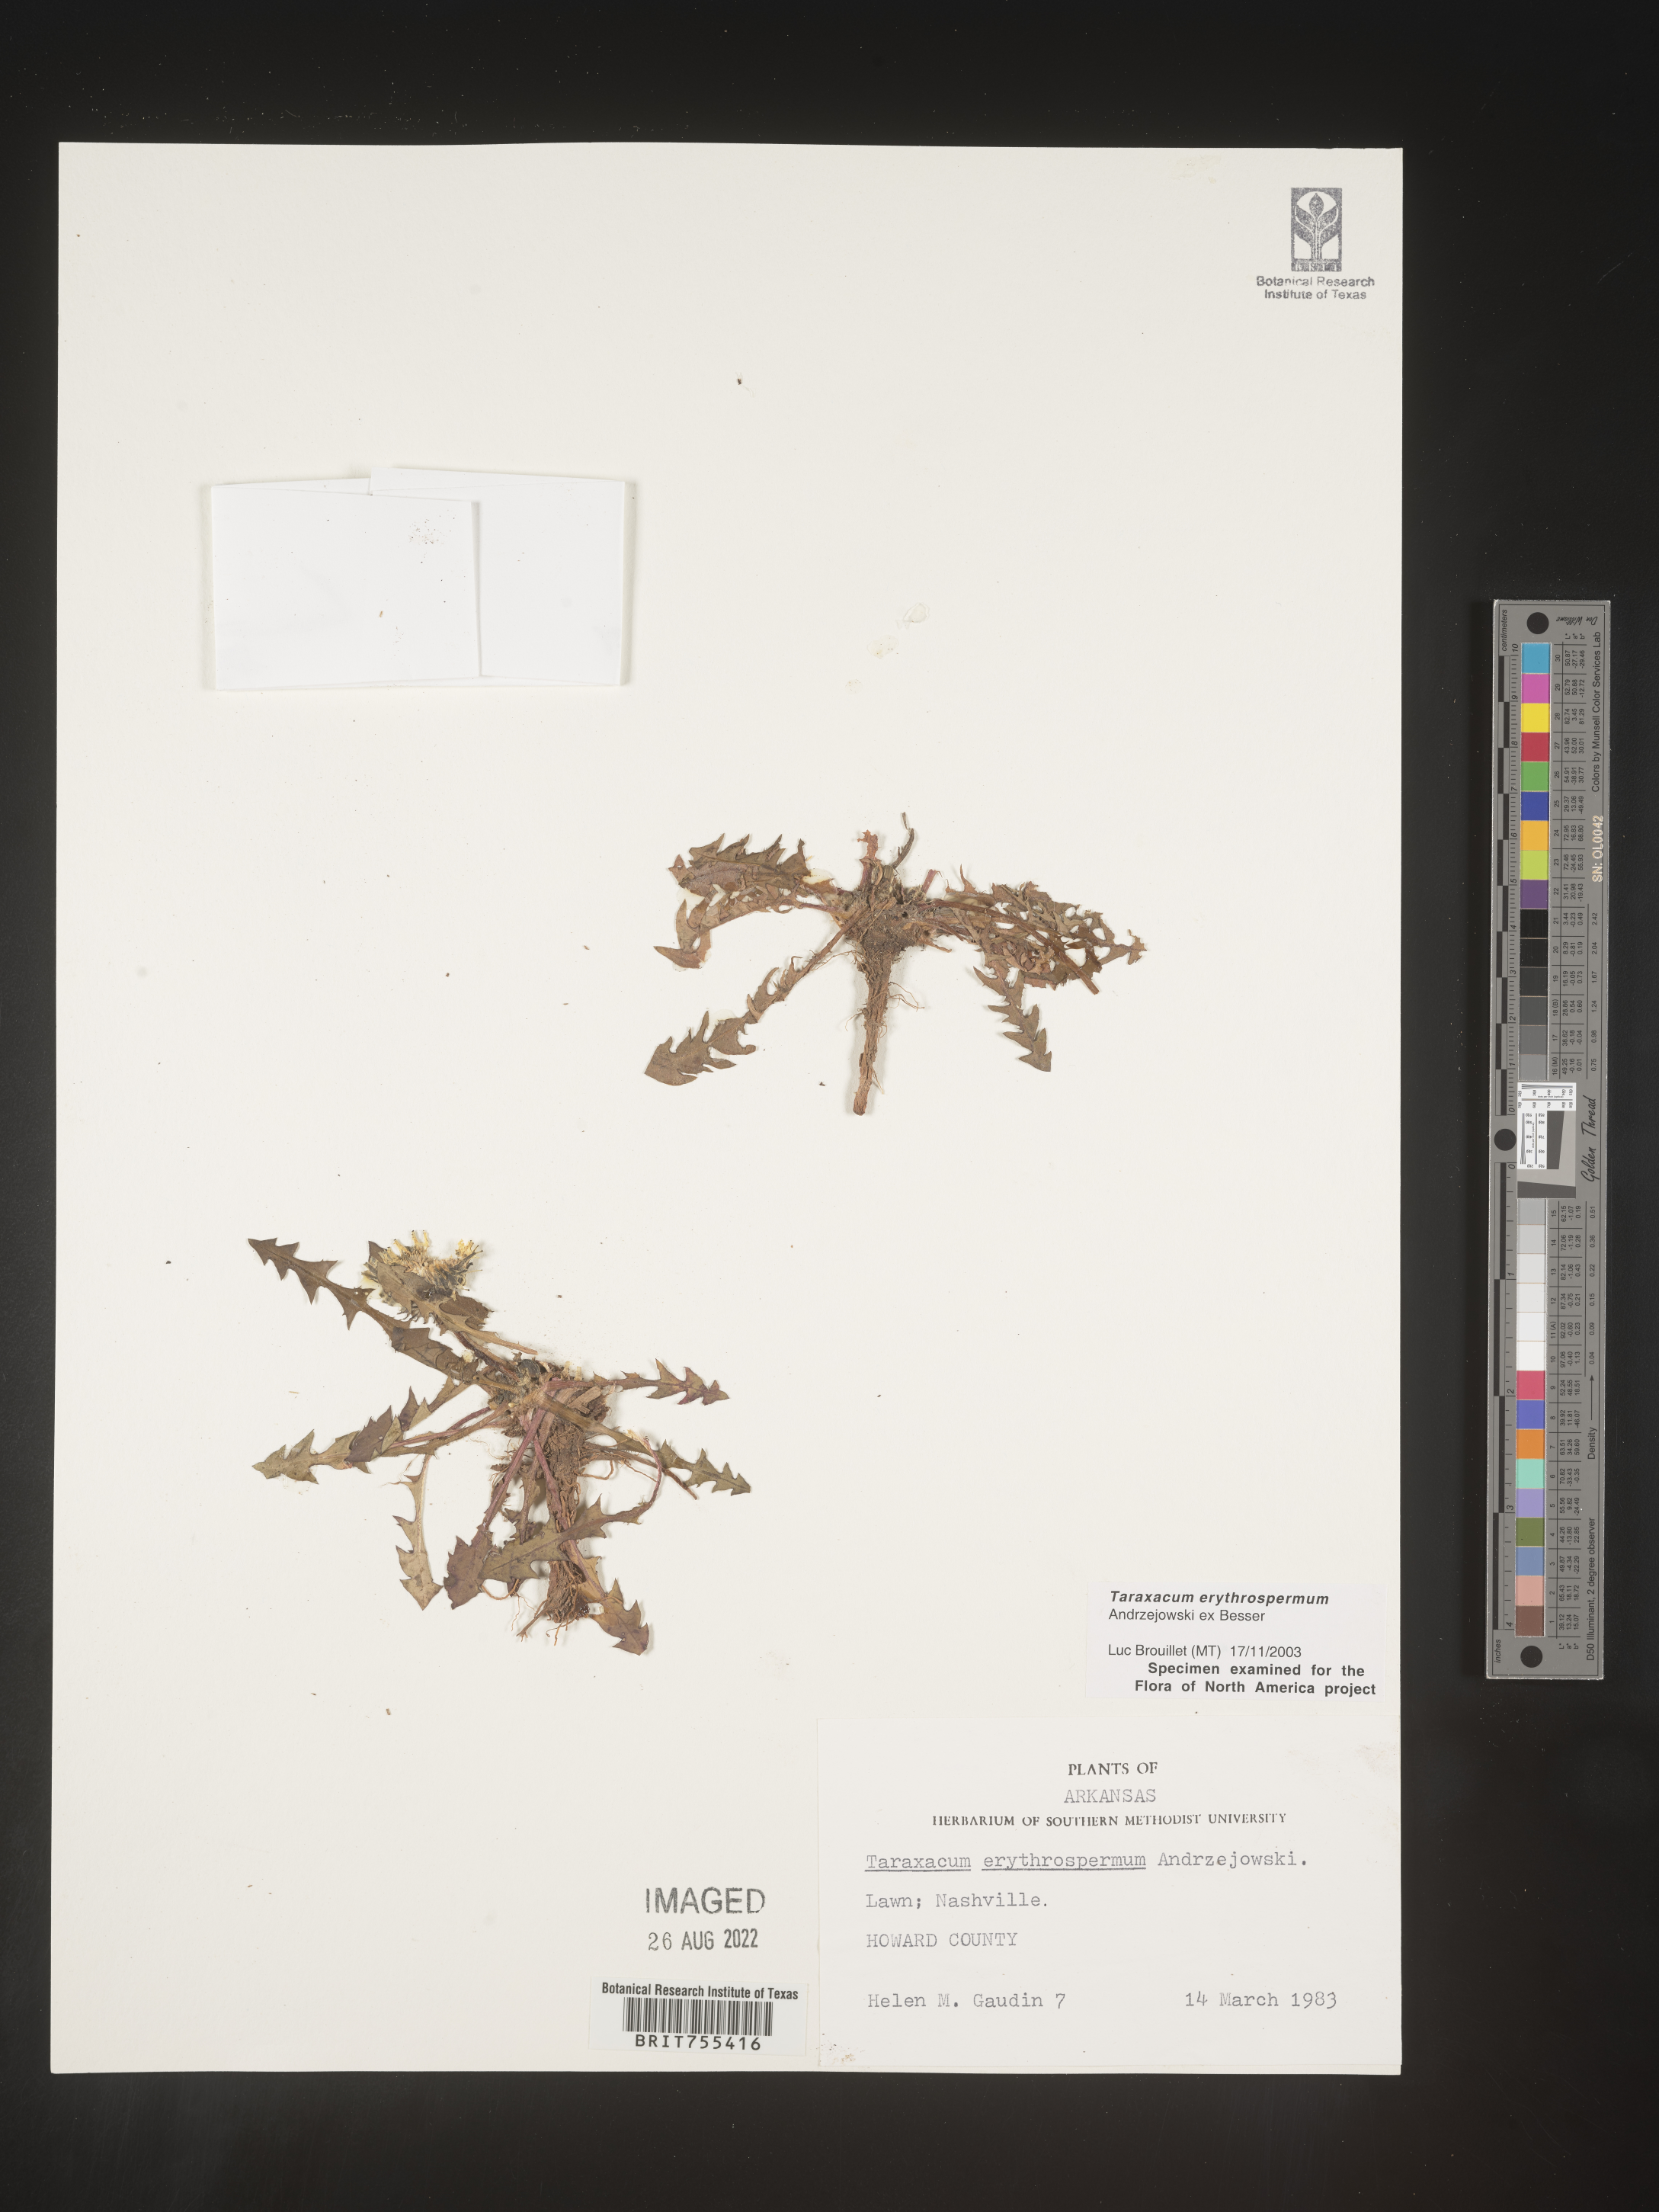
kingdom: Plantae
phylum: Tracheophyta
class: Magnoliopsida
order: Asterales
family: Asteraceae
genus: Taraxacum
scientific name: Taraxacum erythrospermum
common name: Rock dandelion
